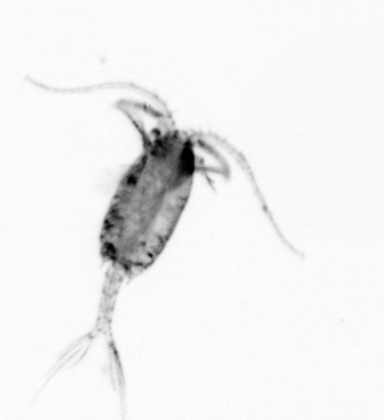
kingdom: Animalia
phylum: Arthropoda
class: Copepoda
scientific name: Copepoda
